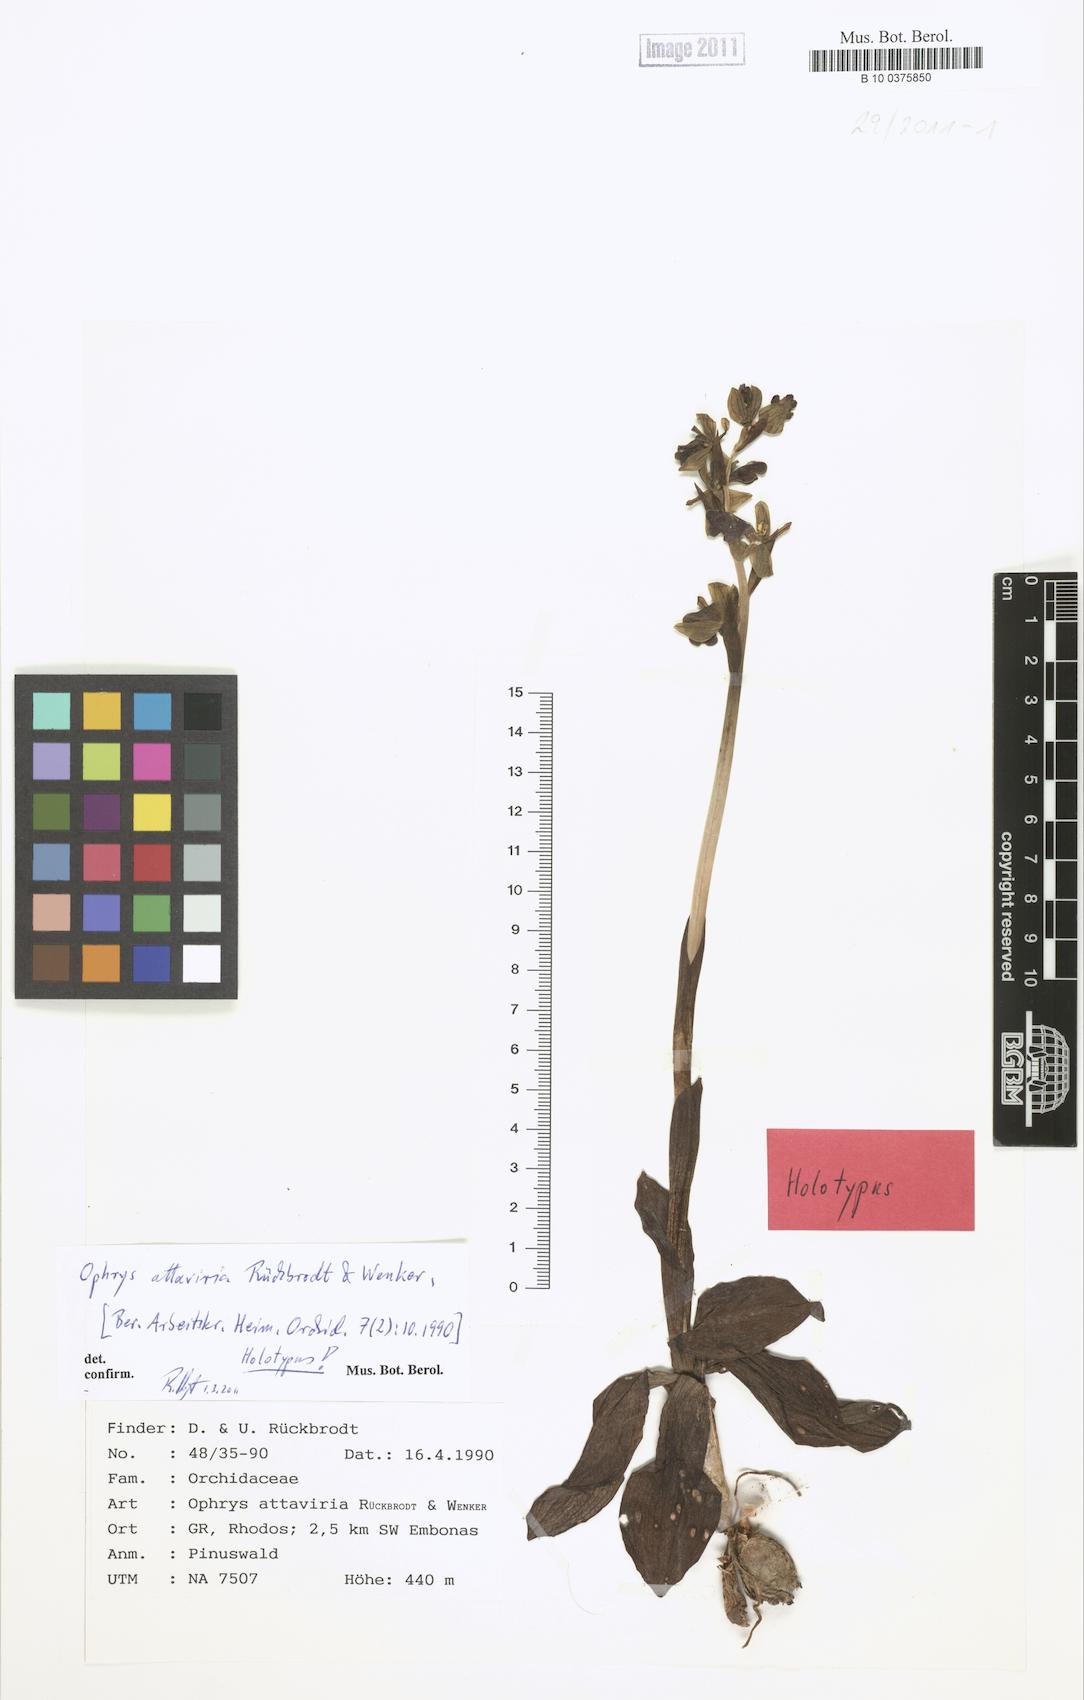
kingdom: Plantae
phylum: Tracheophyta
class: Liliopsida
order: Asparagales
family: Orchidaceae
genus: Ophrys
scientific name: Ophrys fusca
